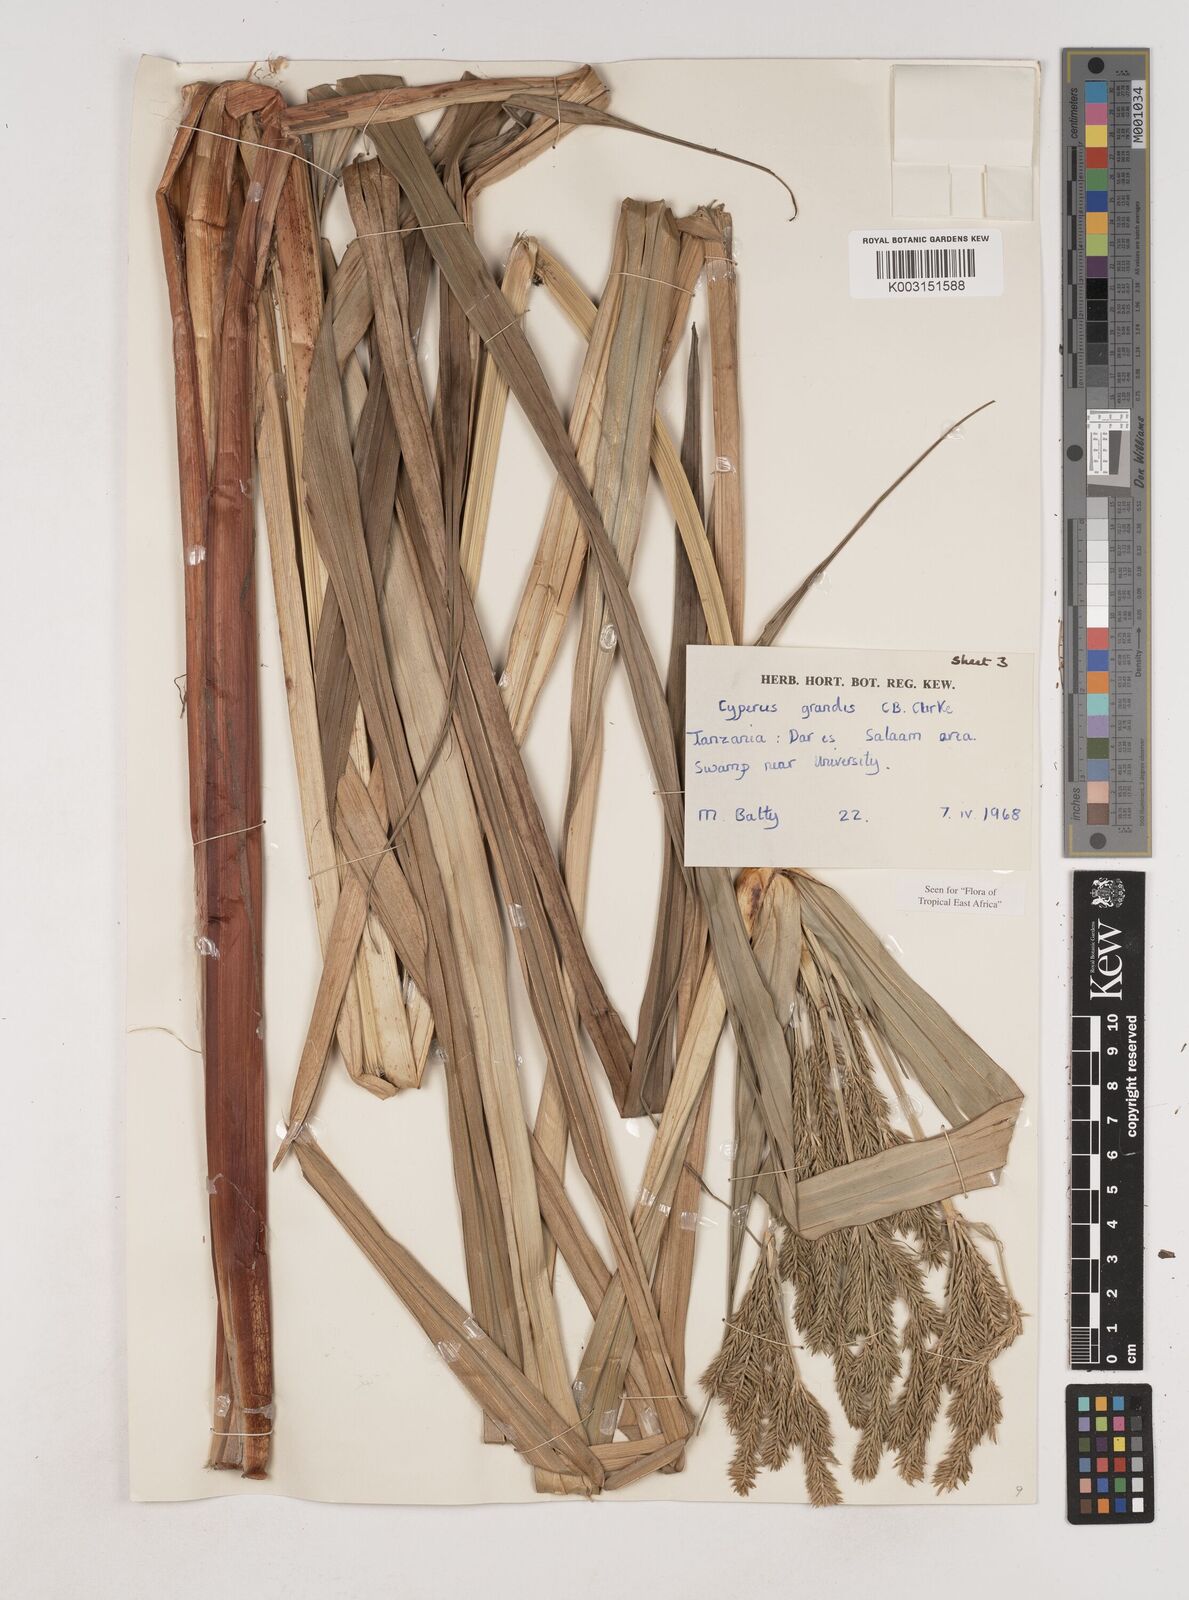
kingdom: Plantae
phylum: Tracheophyta
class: Liliopsida
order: Poales
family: Cyperaceae
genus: Cyperus
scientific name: Cyperus grandis
